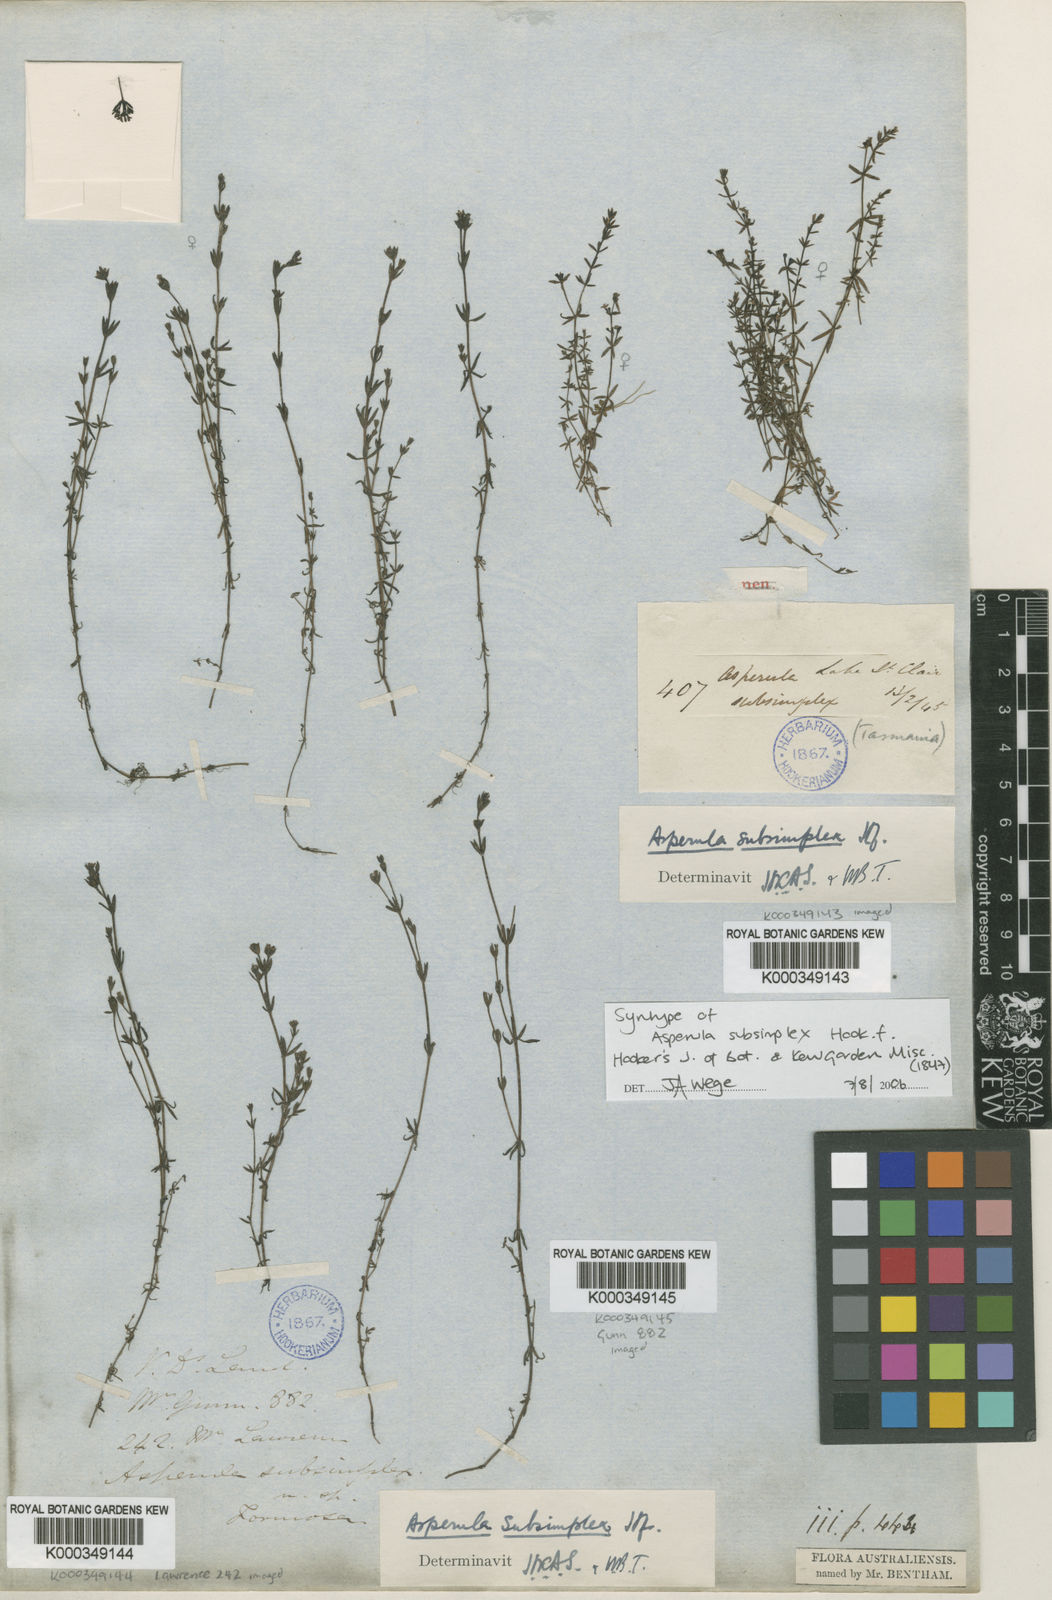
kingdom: Plantae
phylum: Tracheophyta
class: Magnoliopsida
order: Gentianales
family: Rubiaceae
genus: Asperula
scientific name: Asperula subsimplex
